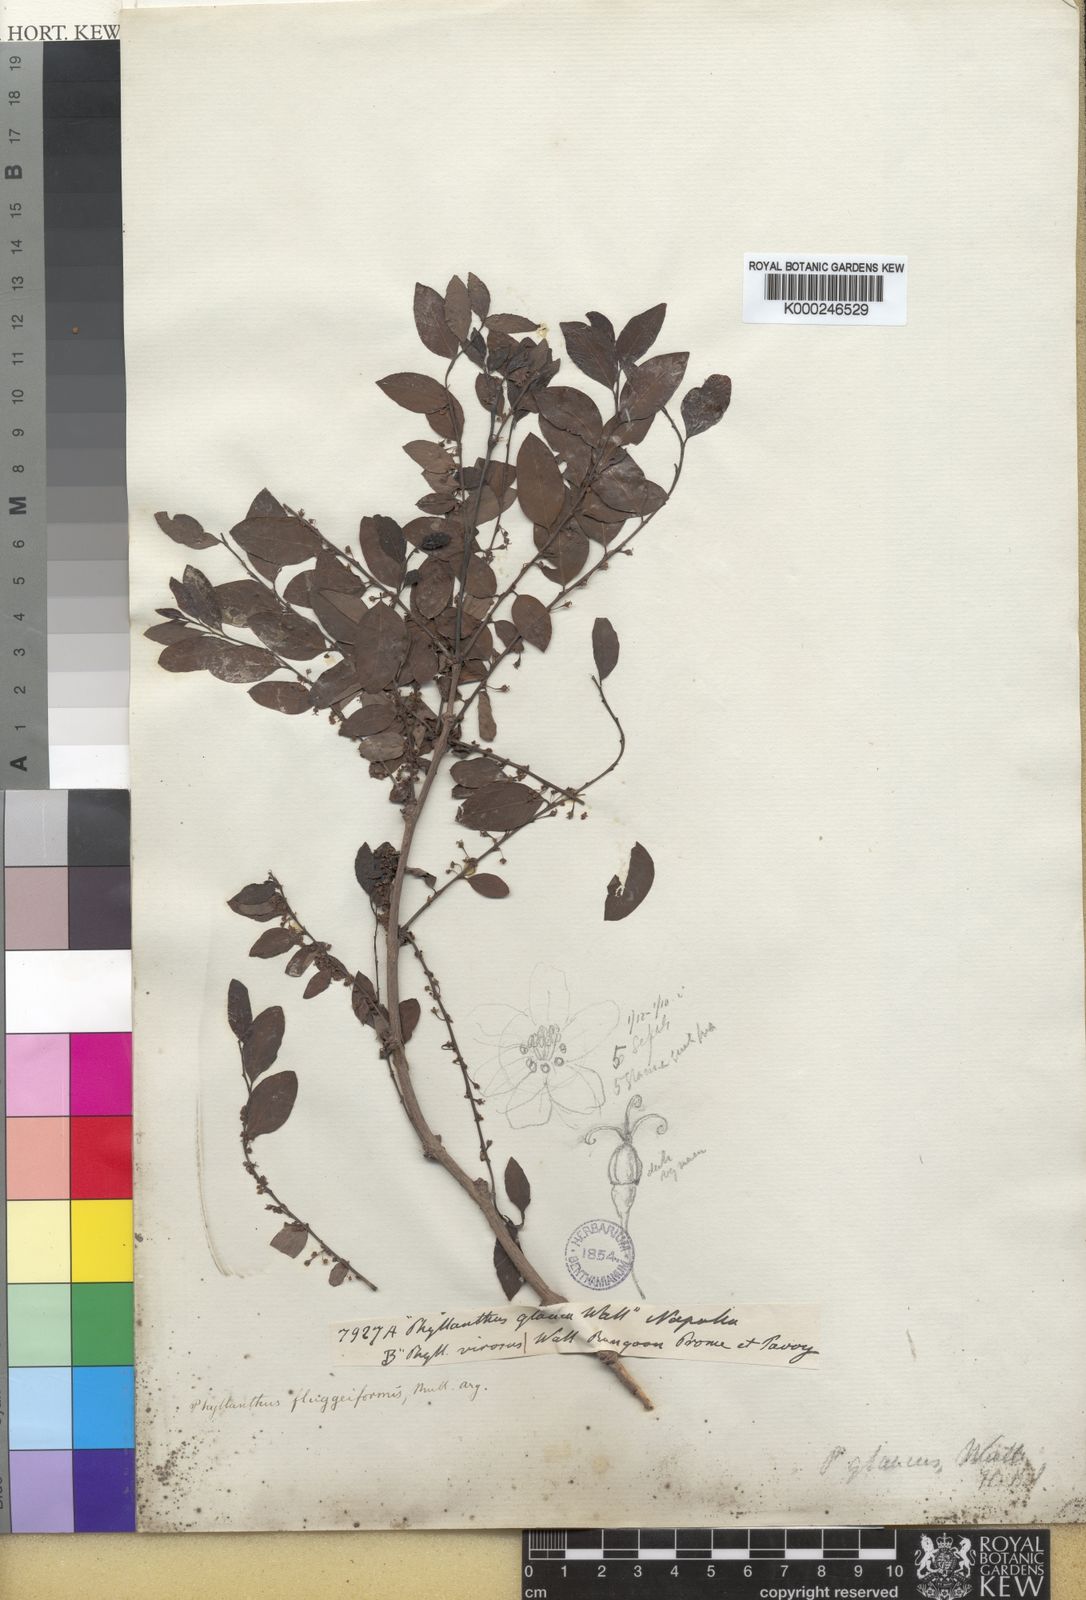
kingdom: Plantae
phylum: Tracheophyta
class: Magnoliopsida
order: Malpighiales
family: Phyllanthaceae
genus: Flueggea
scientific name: Flueggea virosa
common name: Common bushweed
